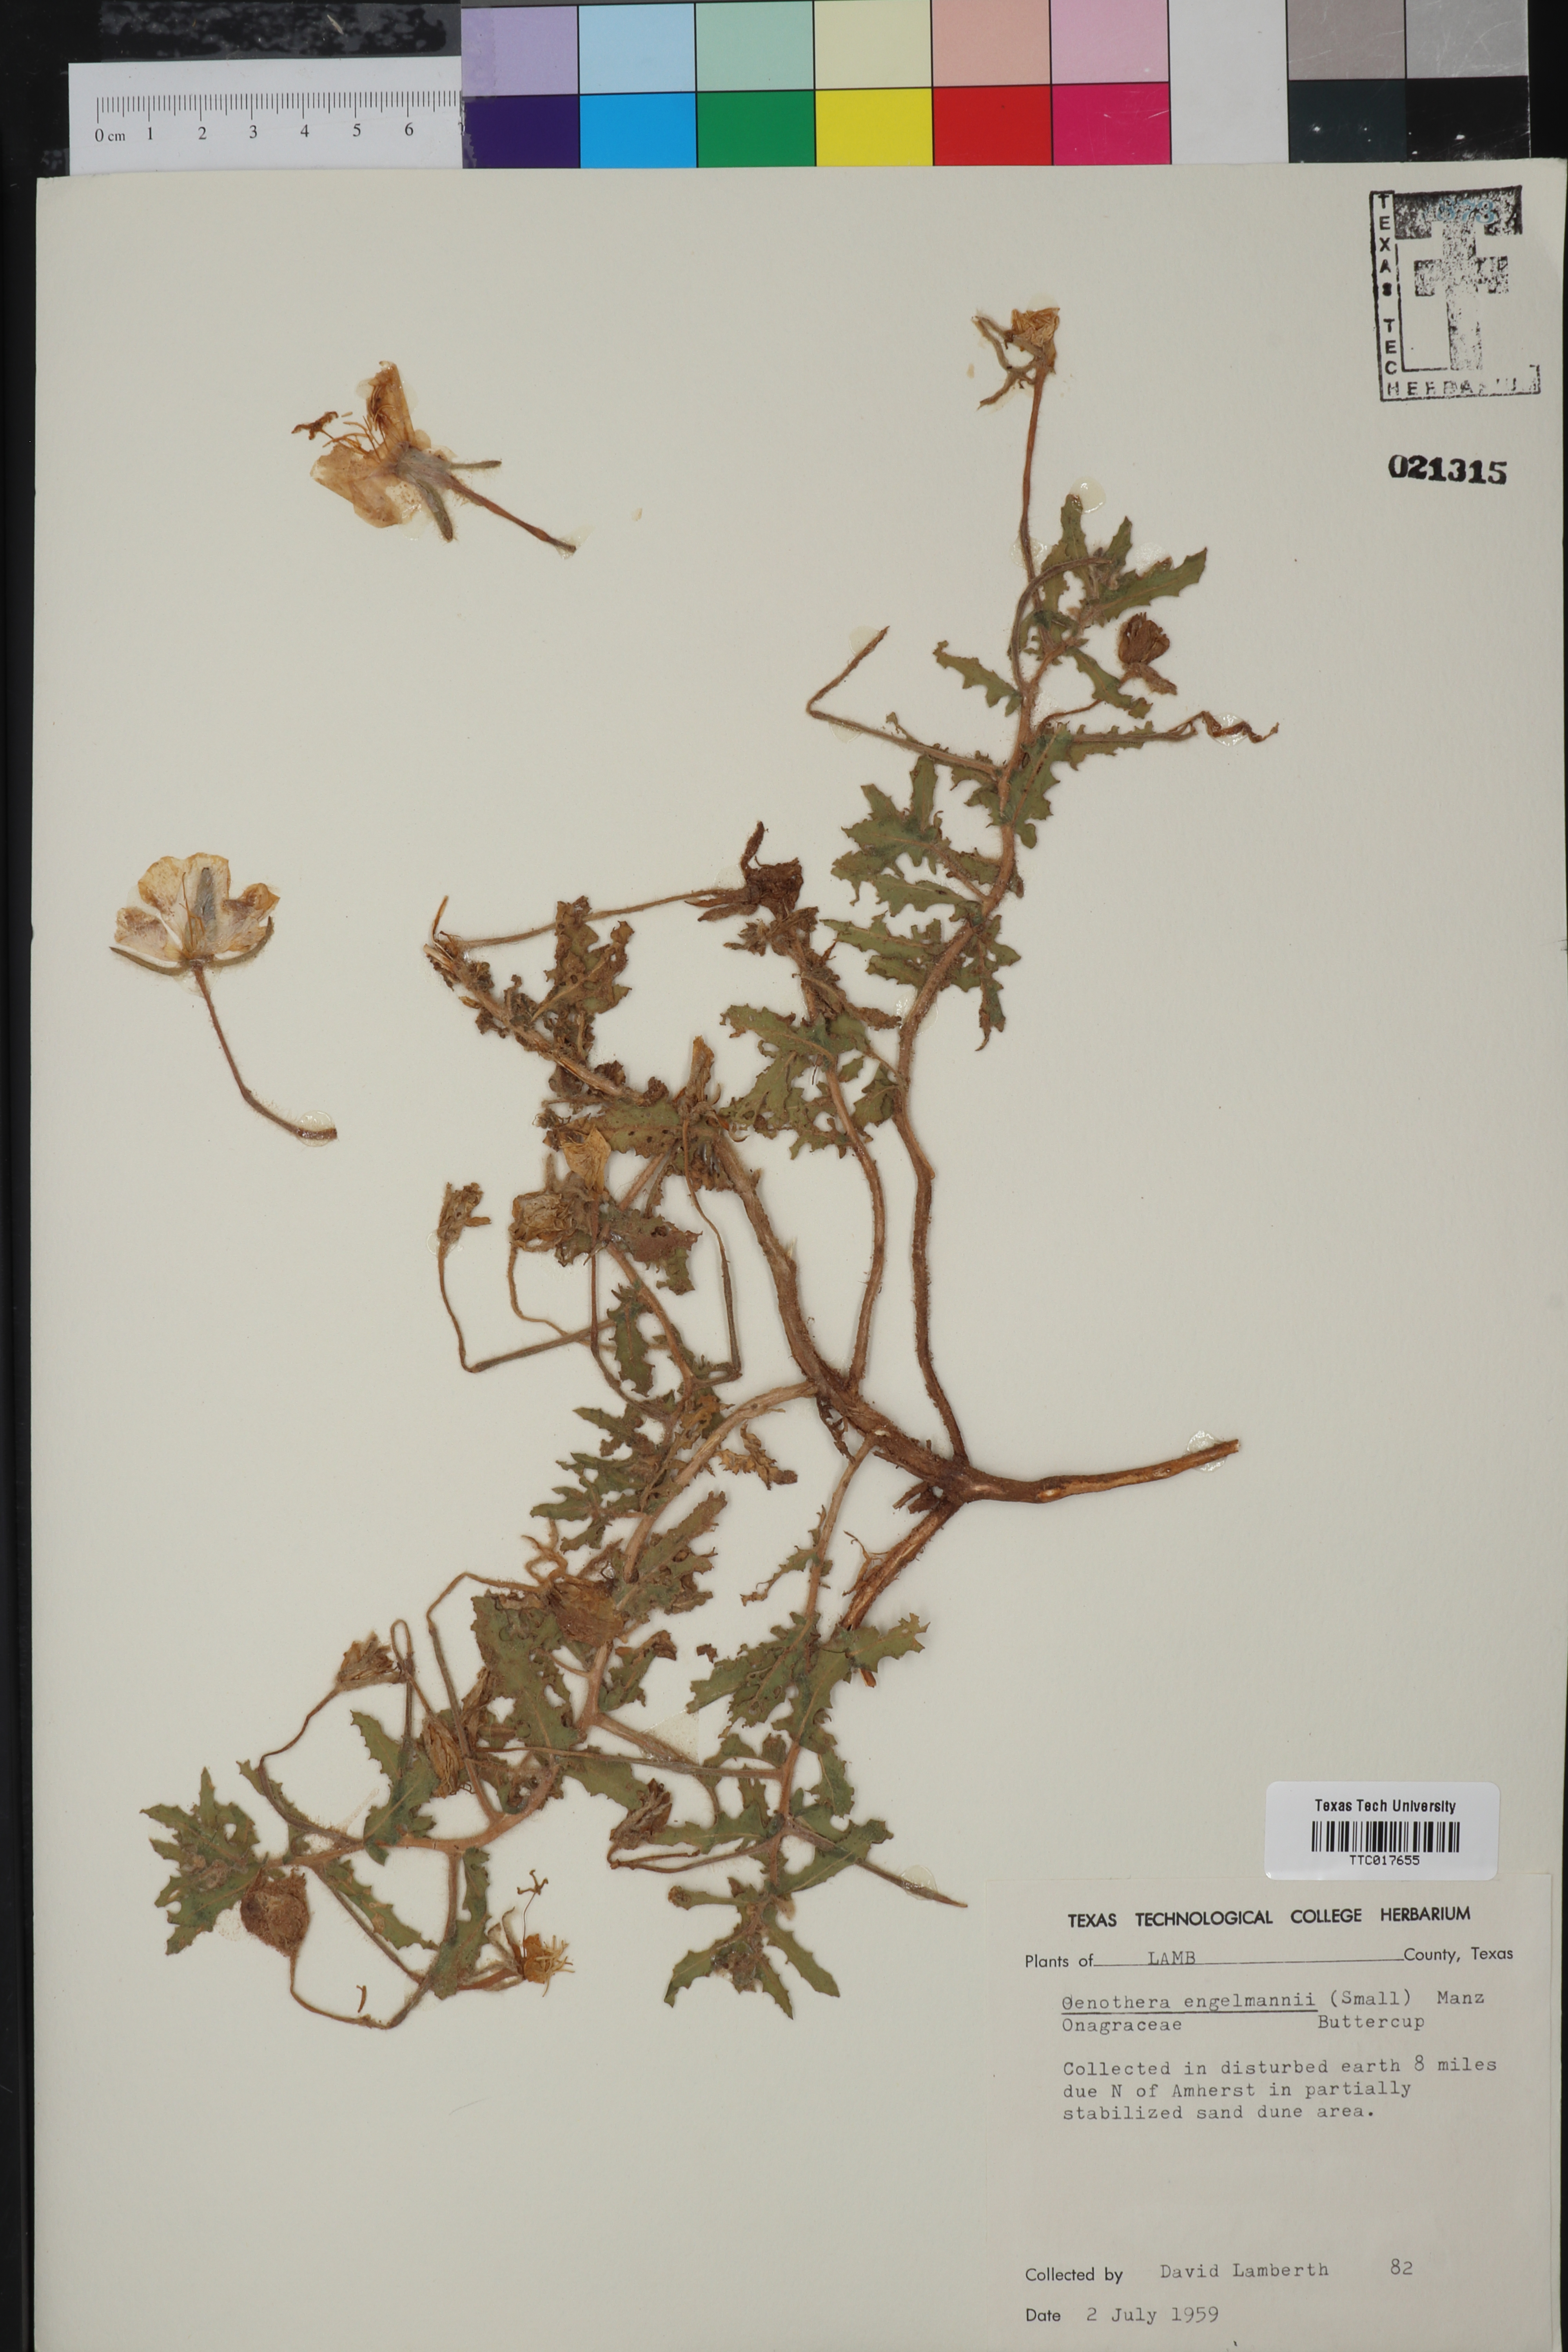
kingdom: Plantae
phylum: Tracheophyta
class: Magnoliopsida
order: Myrtales
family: Onagraceae
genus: Oenothera
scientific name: Oenothera engelmannii
